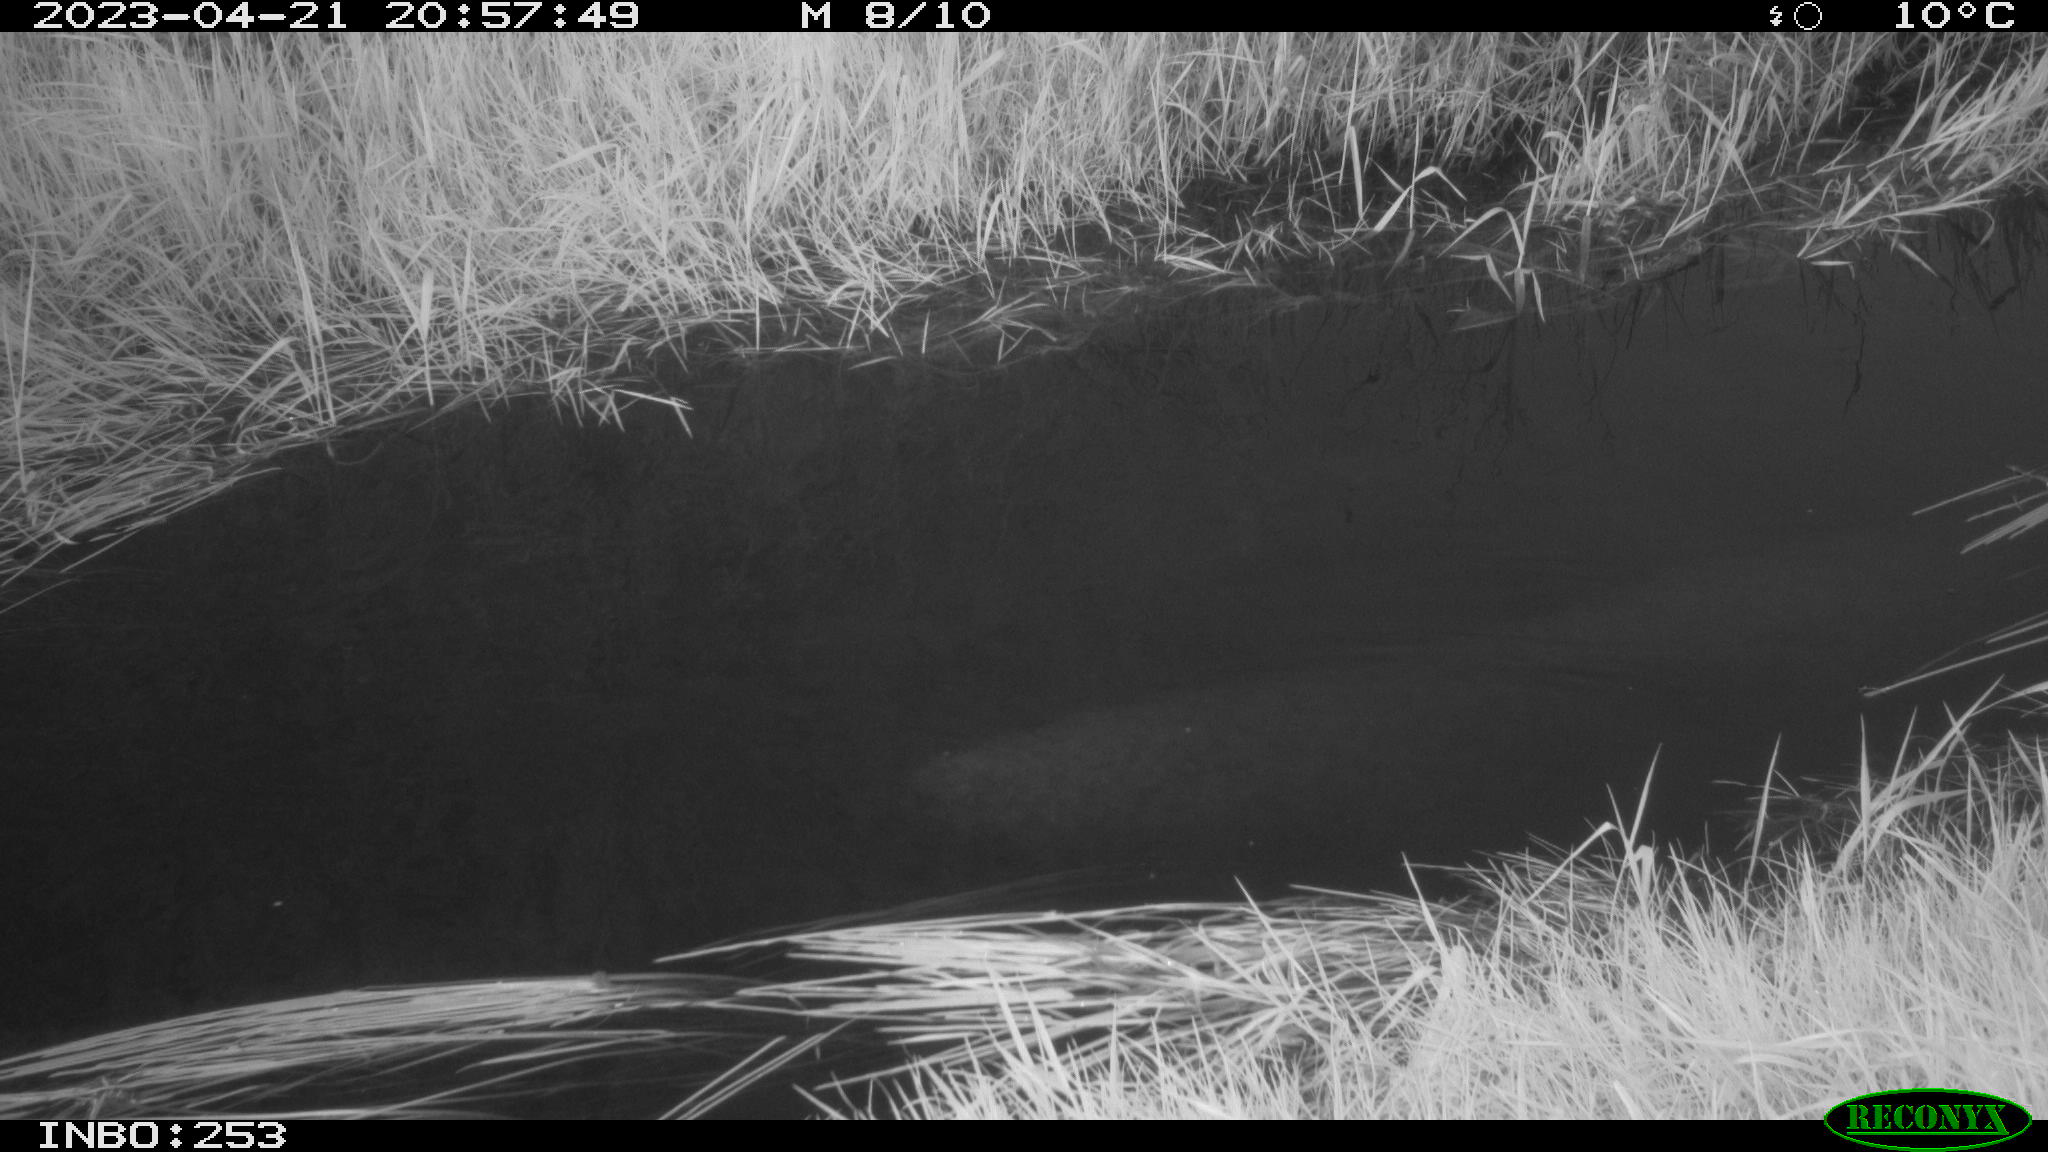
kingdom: Animalia
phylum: Chordata
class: Aves
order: Anseriformes
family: Anatidae
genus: Anas
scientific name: Anas
